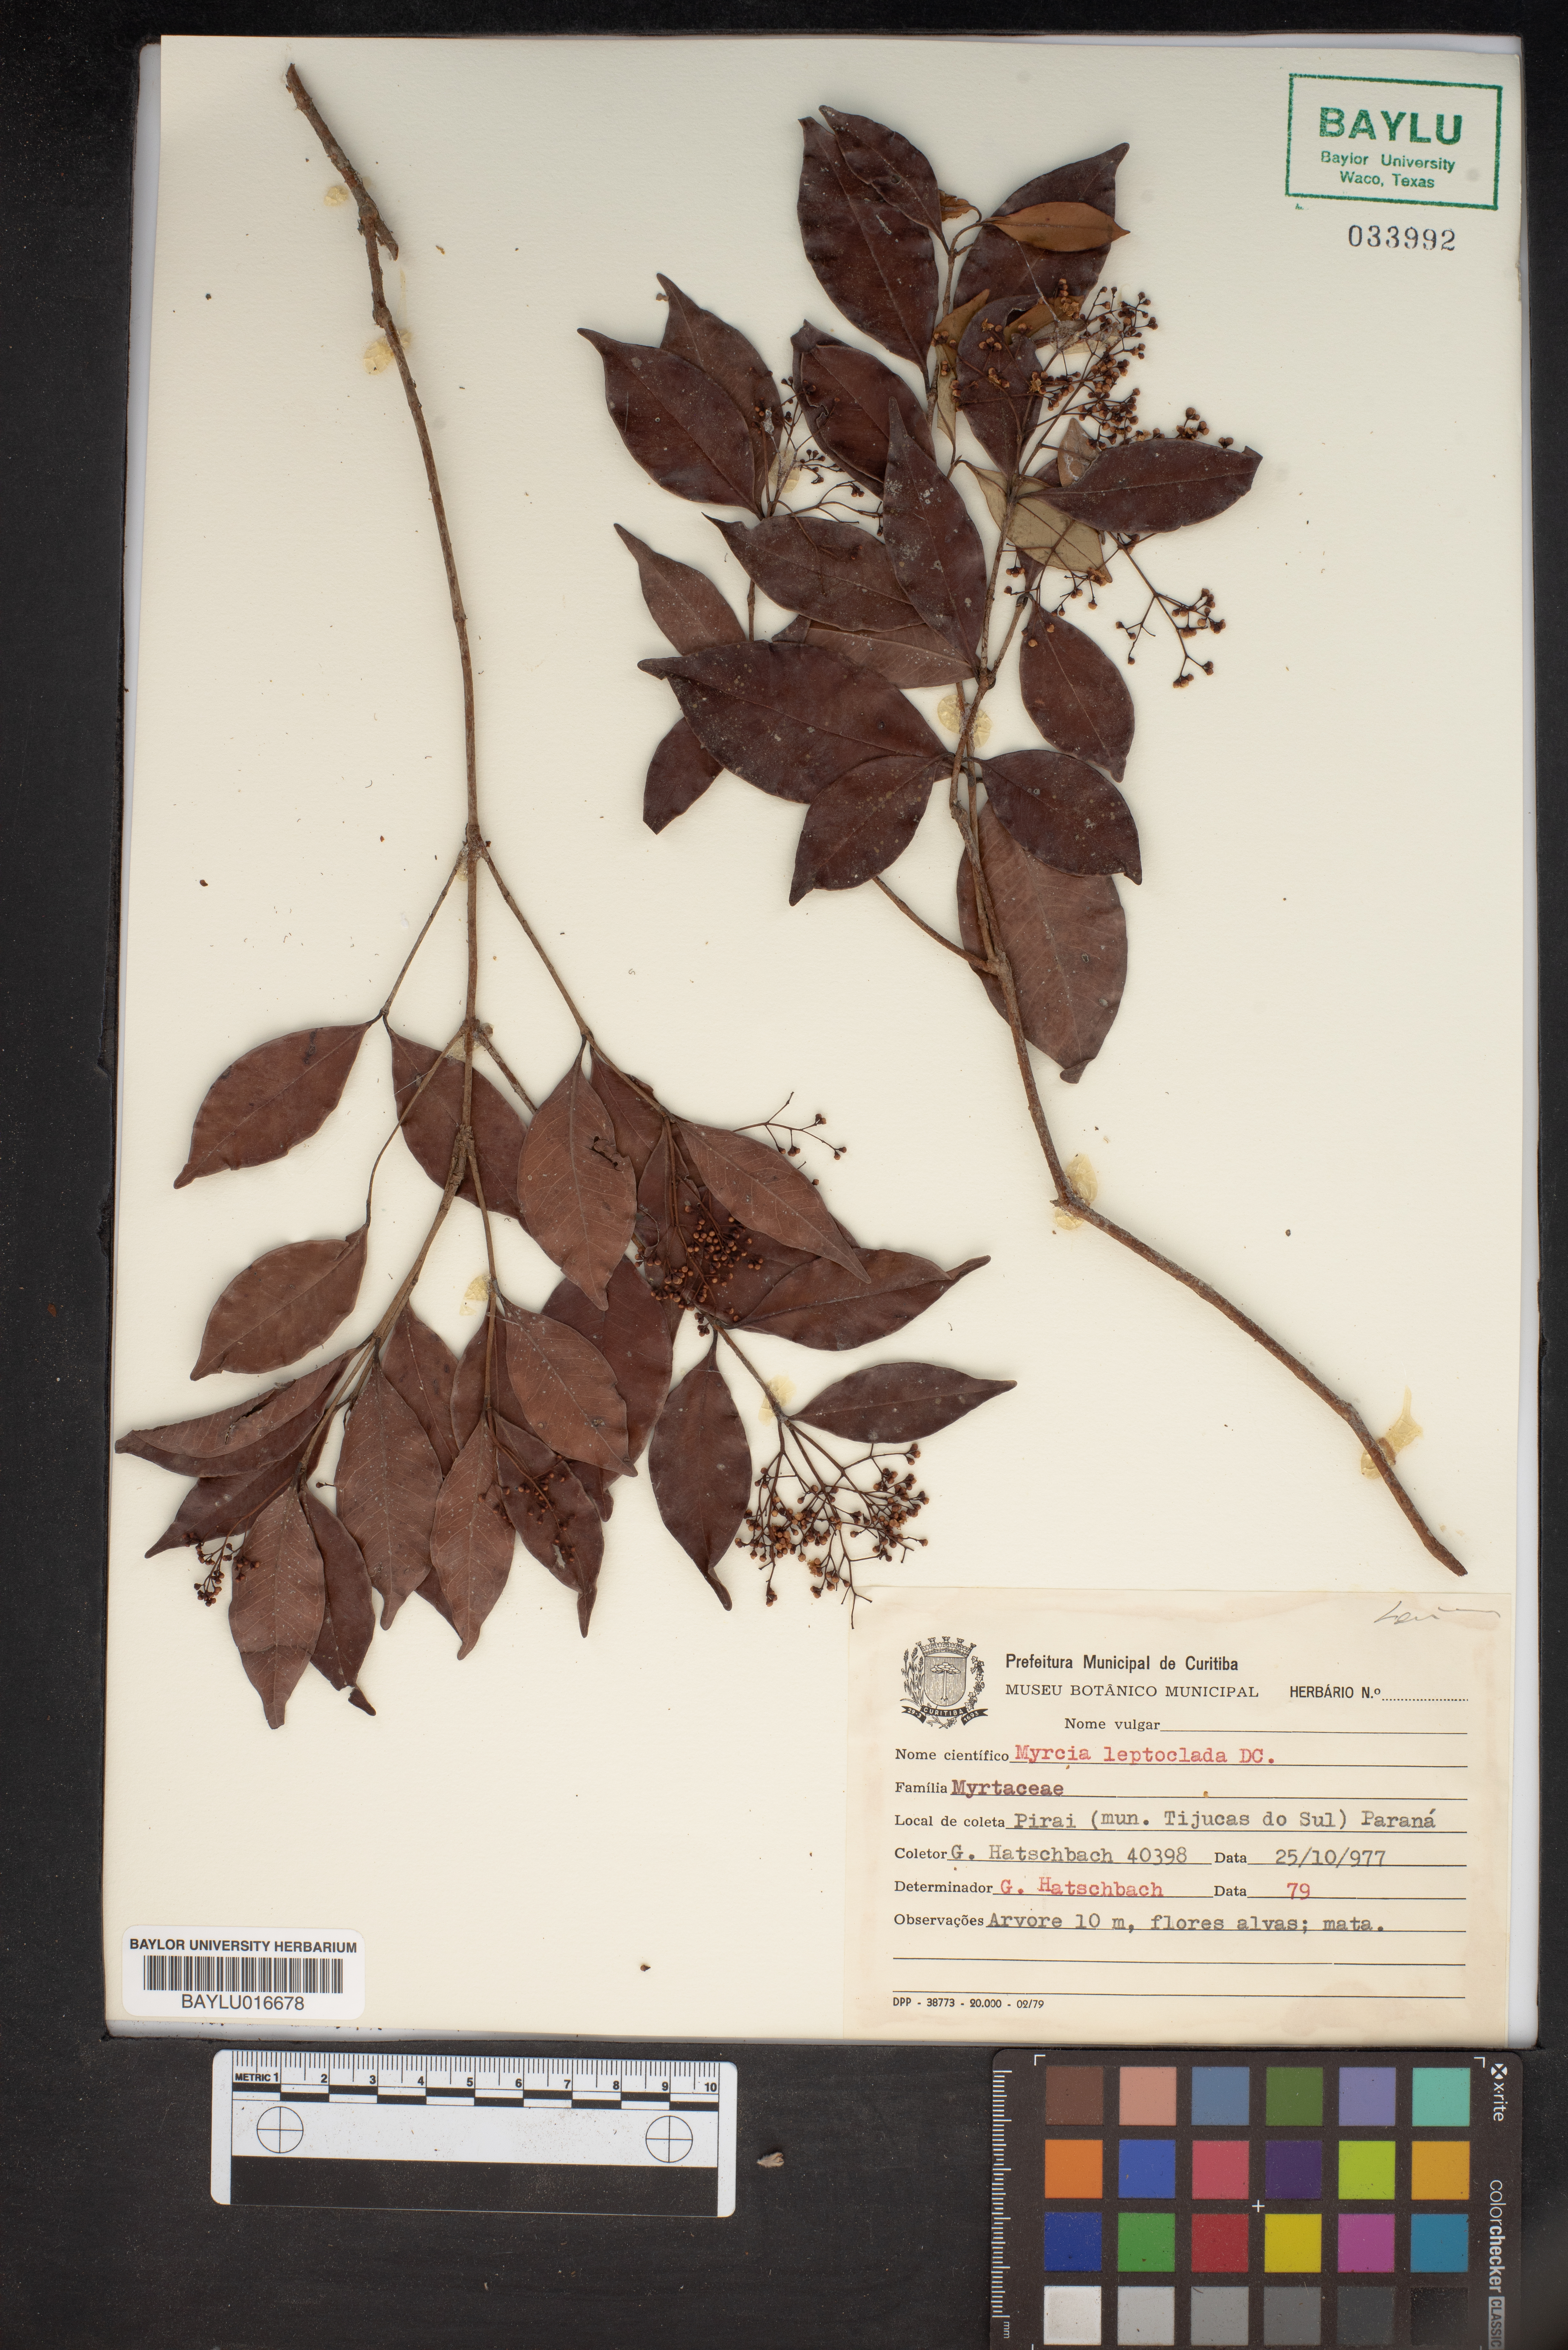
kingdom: Plantae
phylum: Tracheophyta
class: Magnoliopsida
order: Myrtales
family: Myrtaceae
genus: Myrcia
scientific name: Myrcia amazonica
